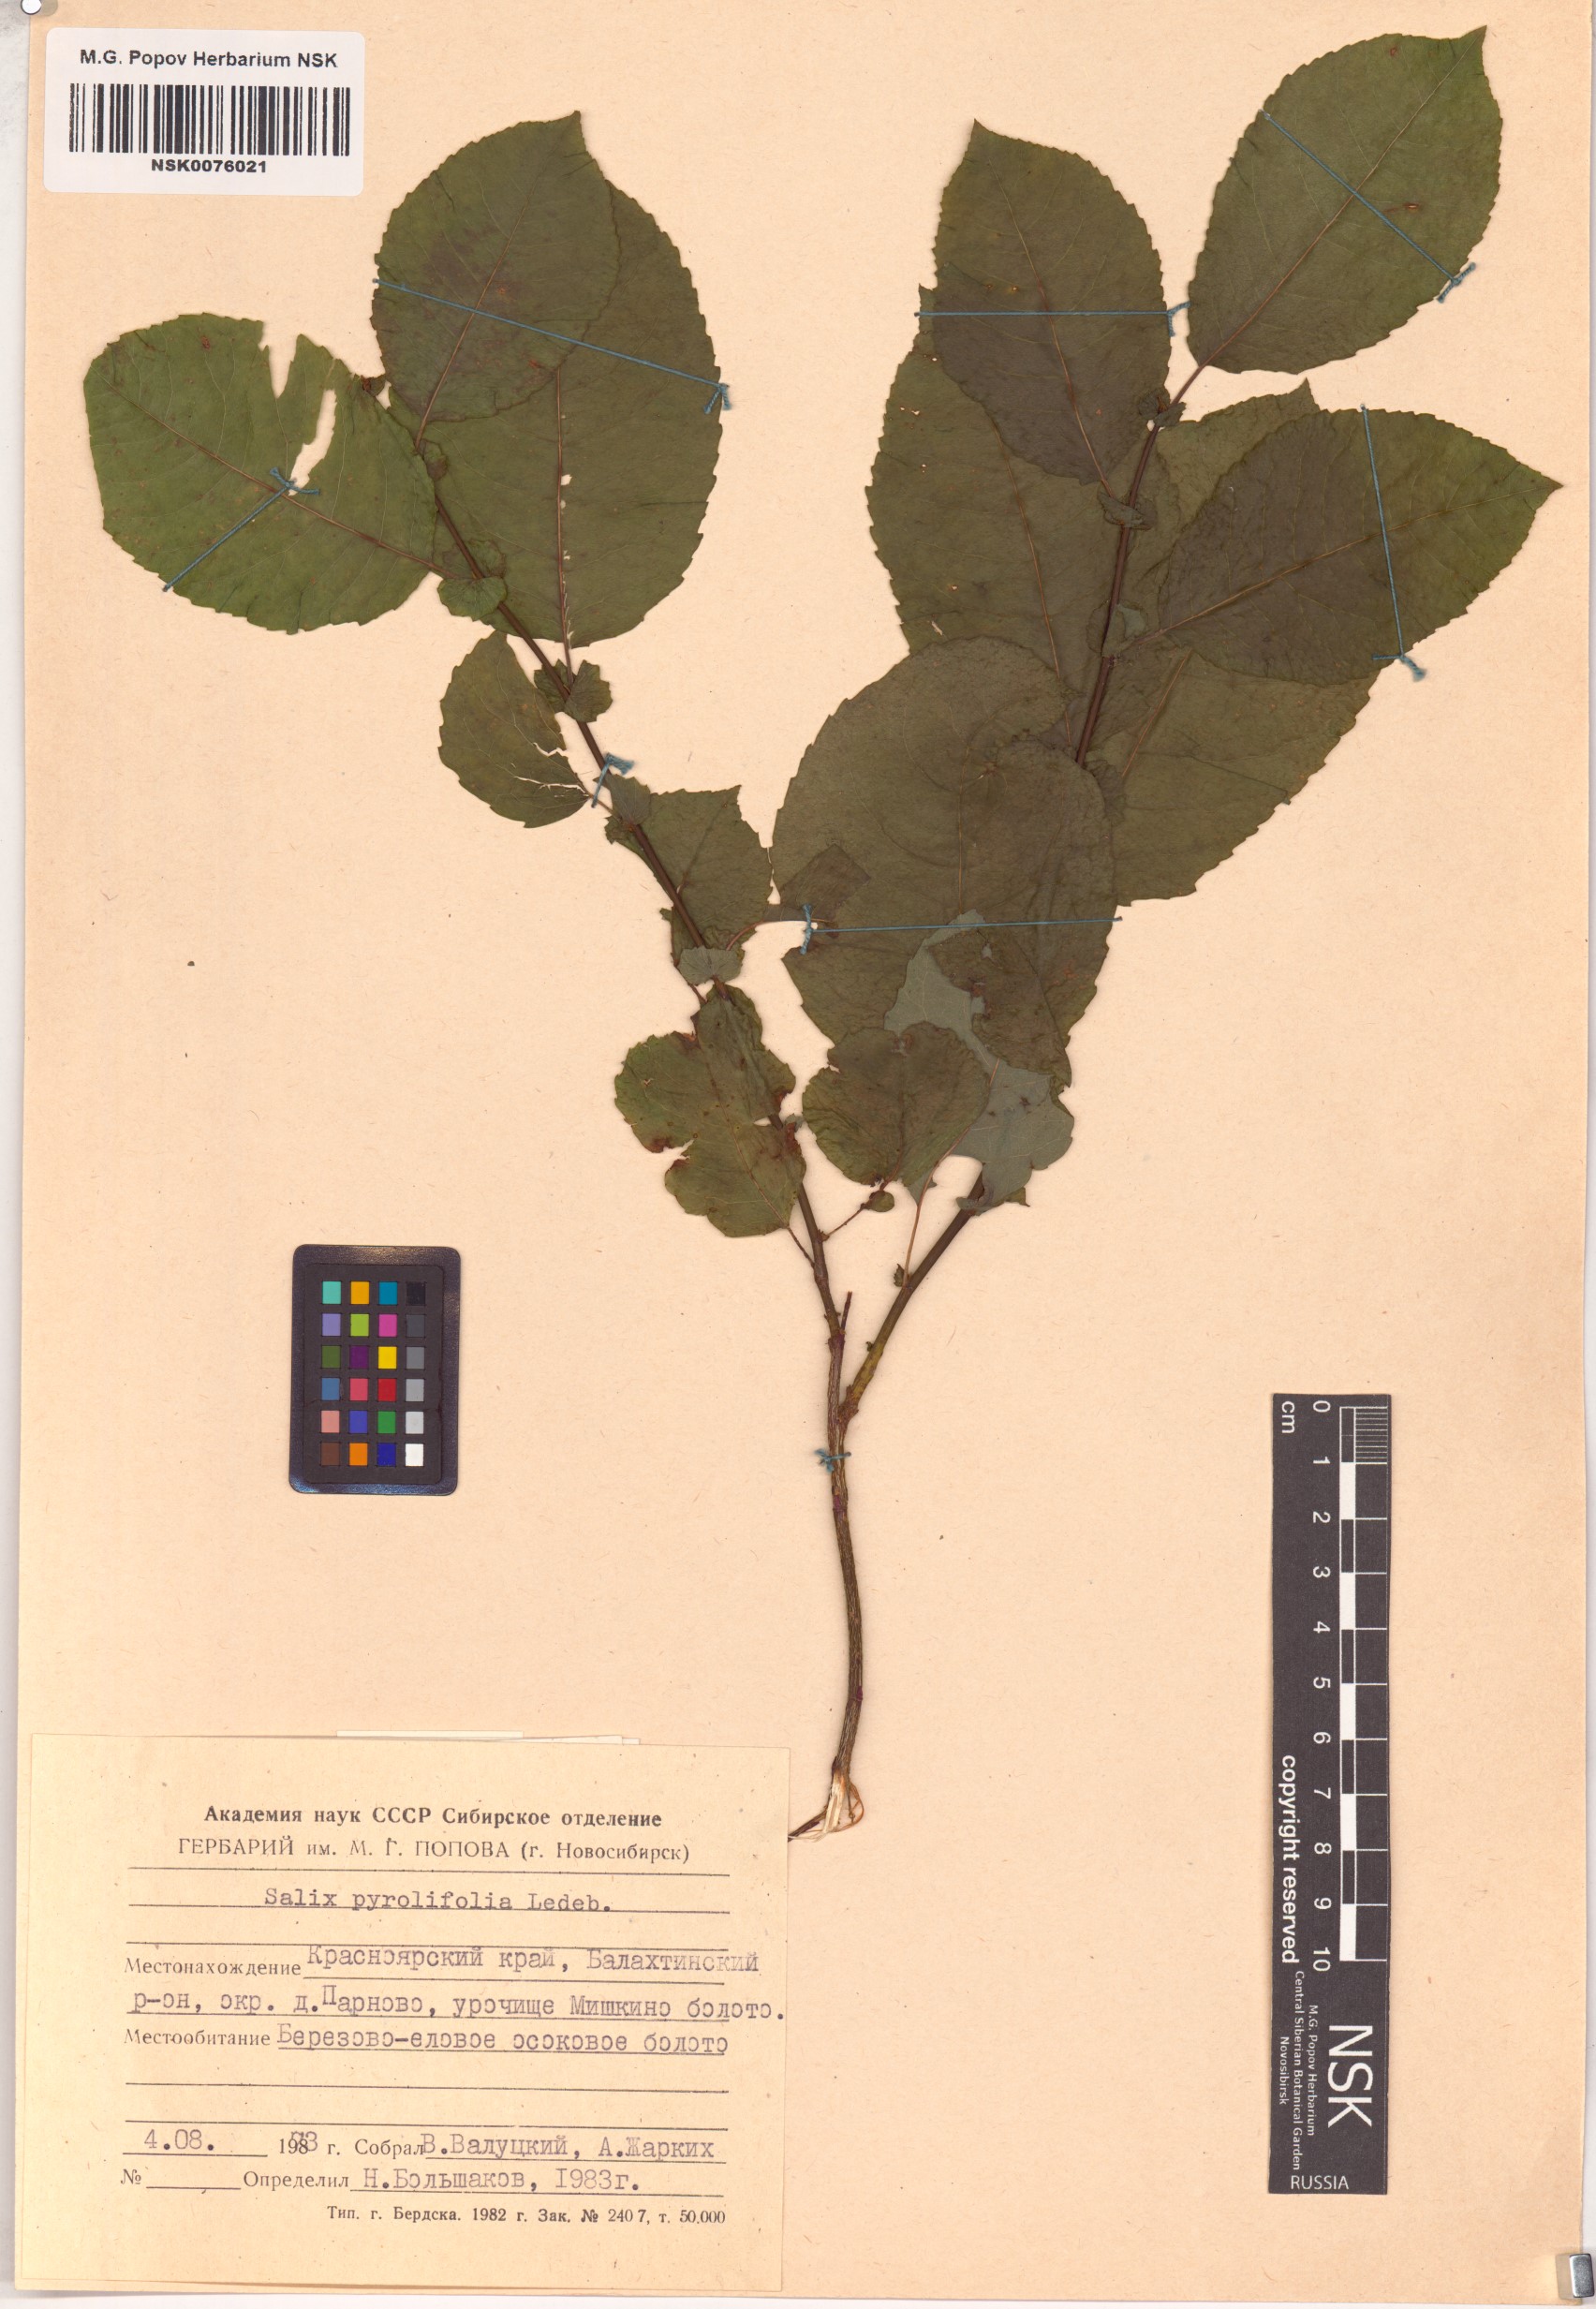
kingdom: Plantae
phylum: Tracheophyta
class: Magnoliopsida
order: Malpighiales
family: Salicaceae
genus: Salix
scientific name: Salix pyrolifolia
